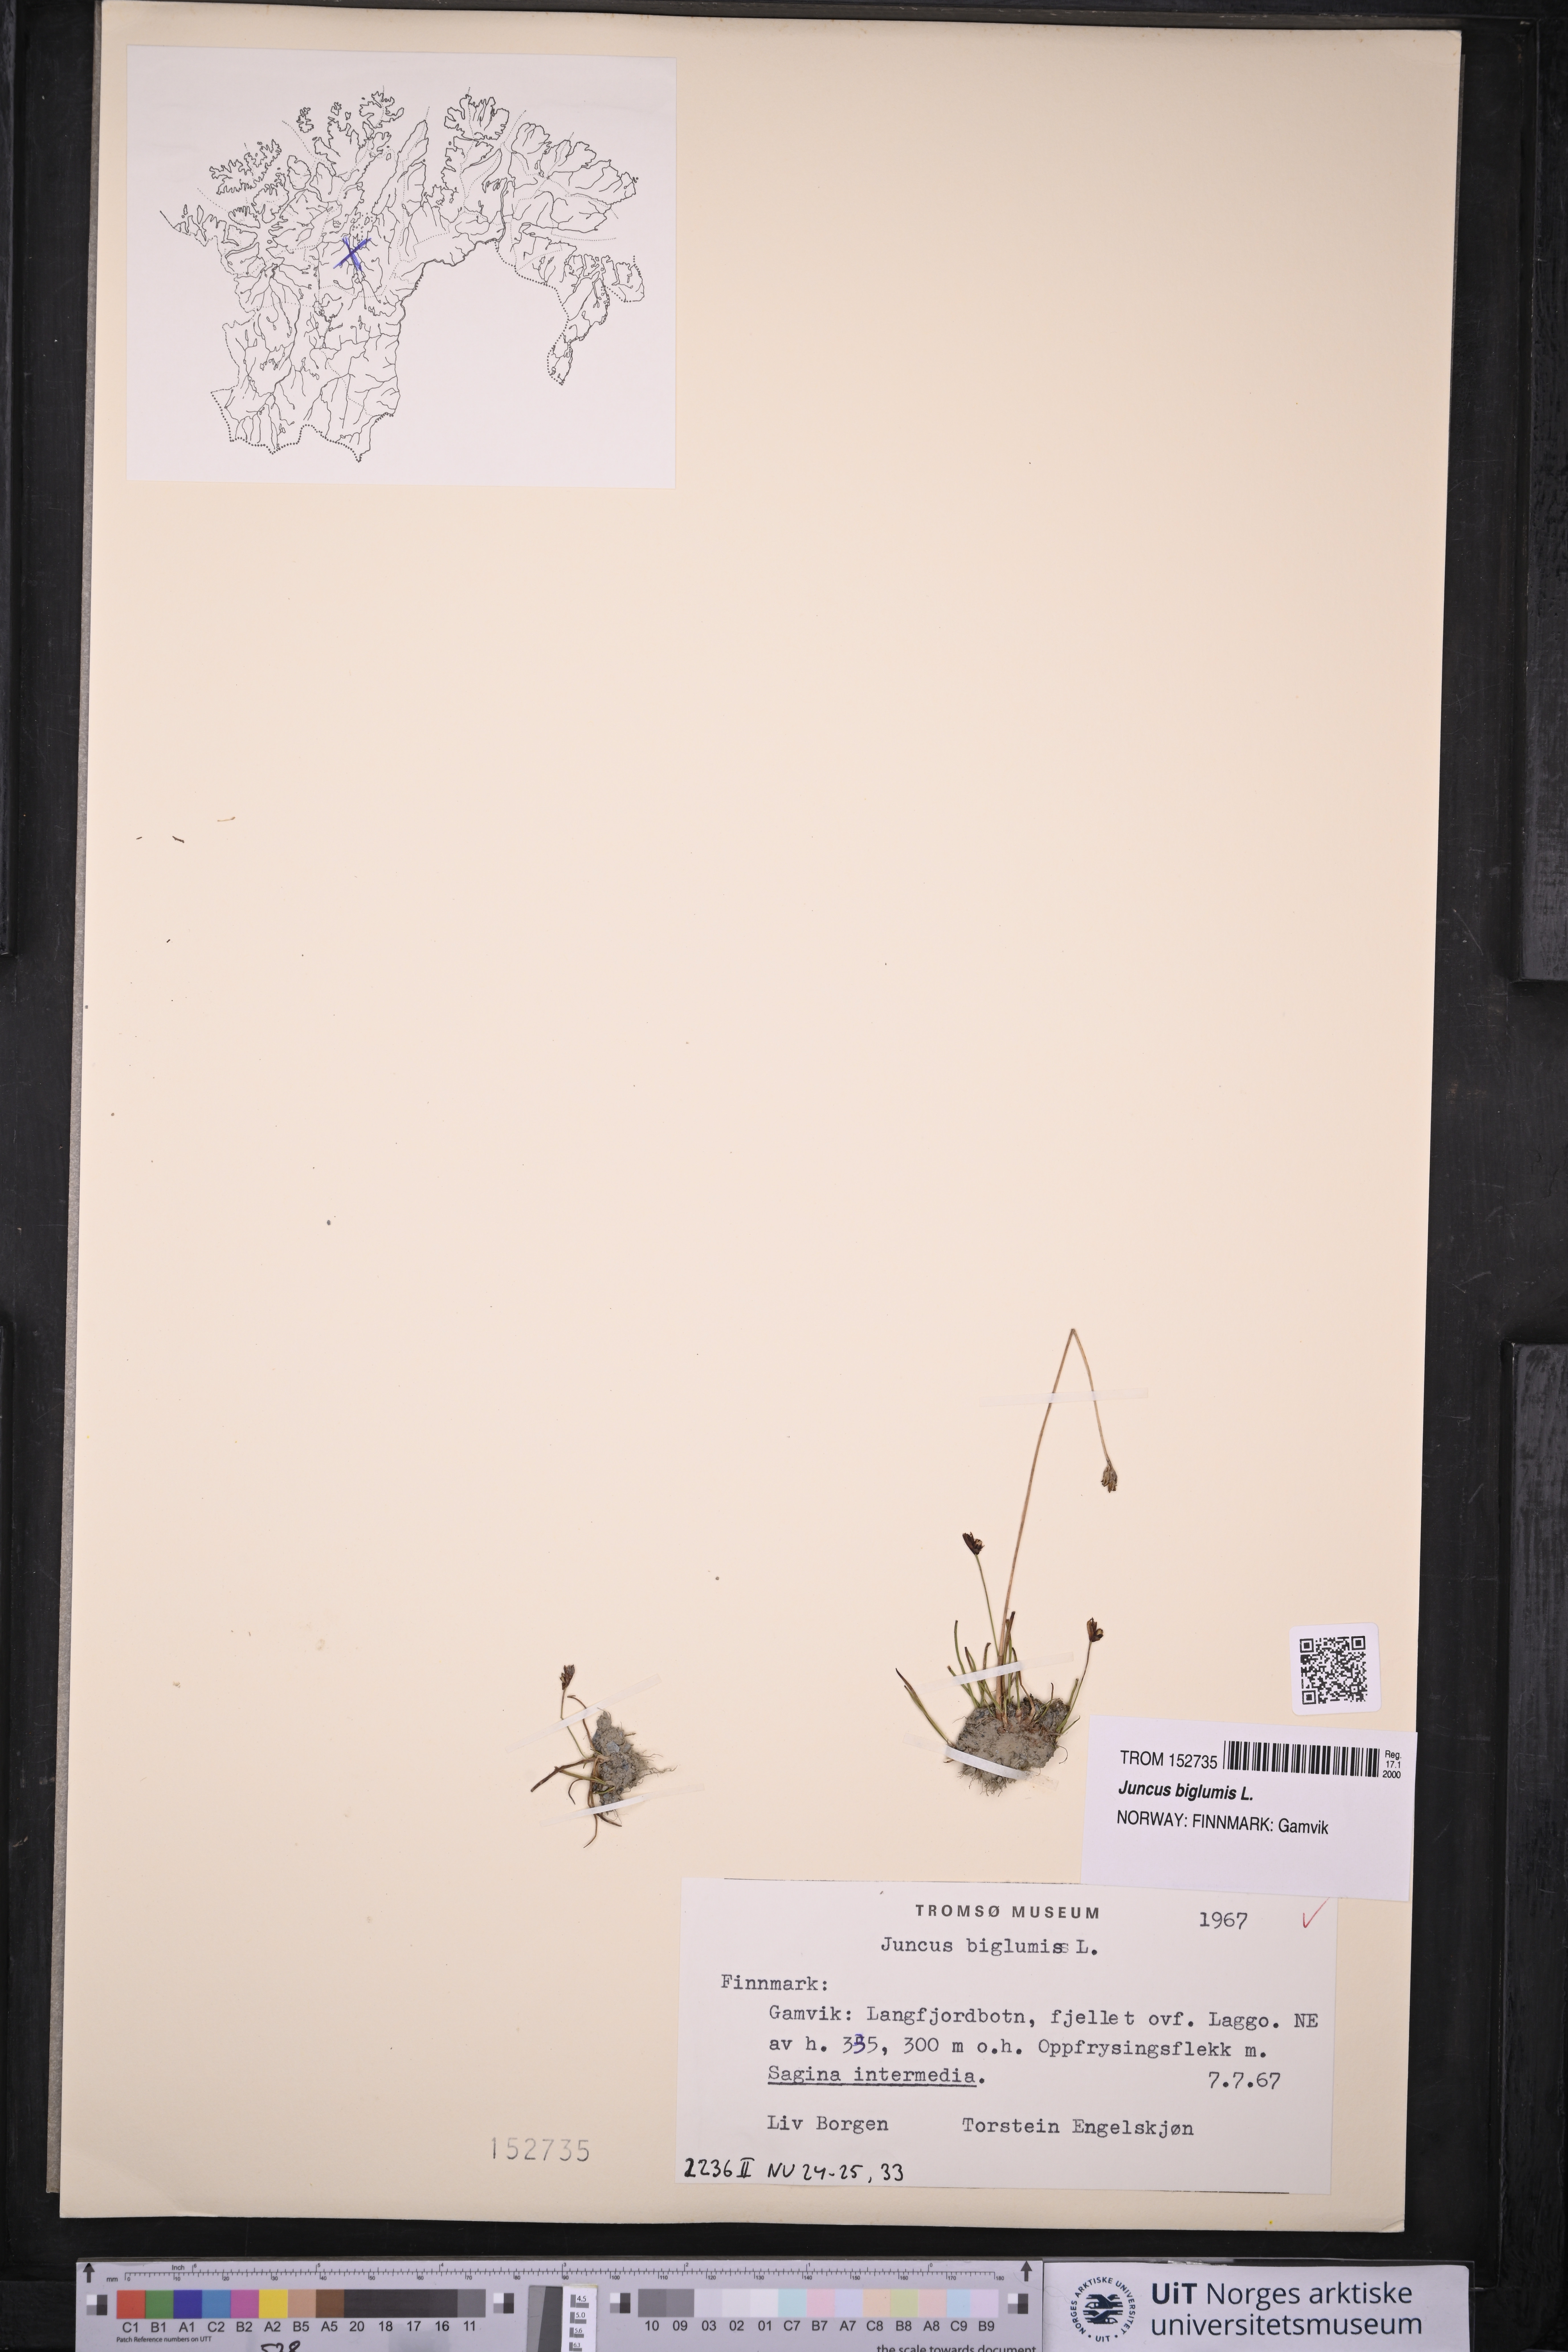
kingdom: Plantae
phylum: Tracheophyta
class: Liliopsida
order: Poales
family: Juncaceae
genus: Juncus
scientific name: Juncus biglumis
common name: Two-flowered rush
